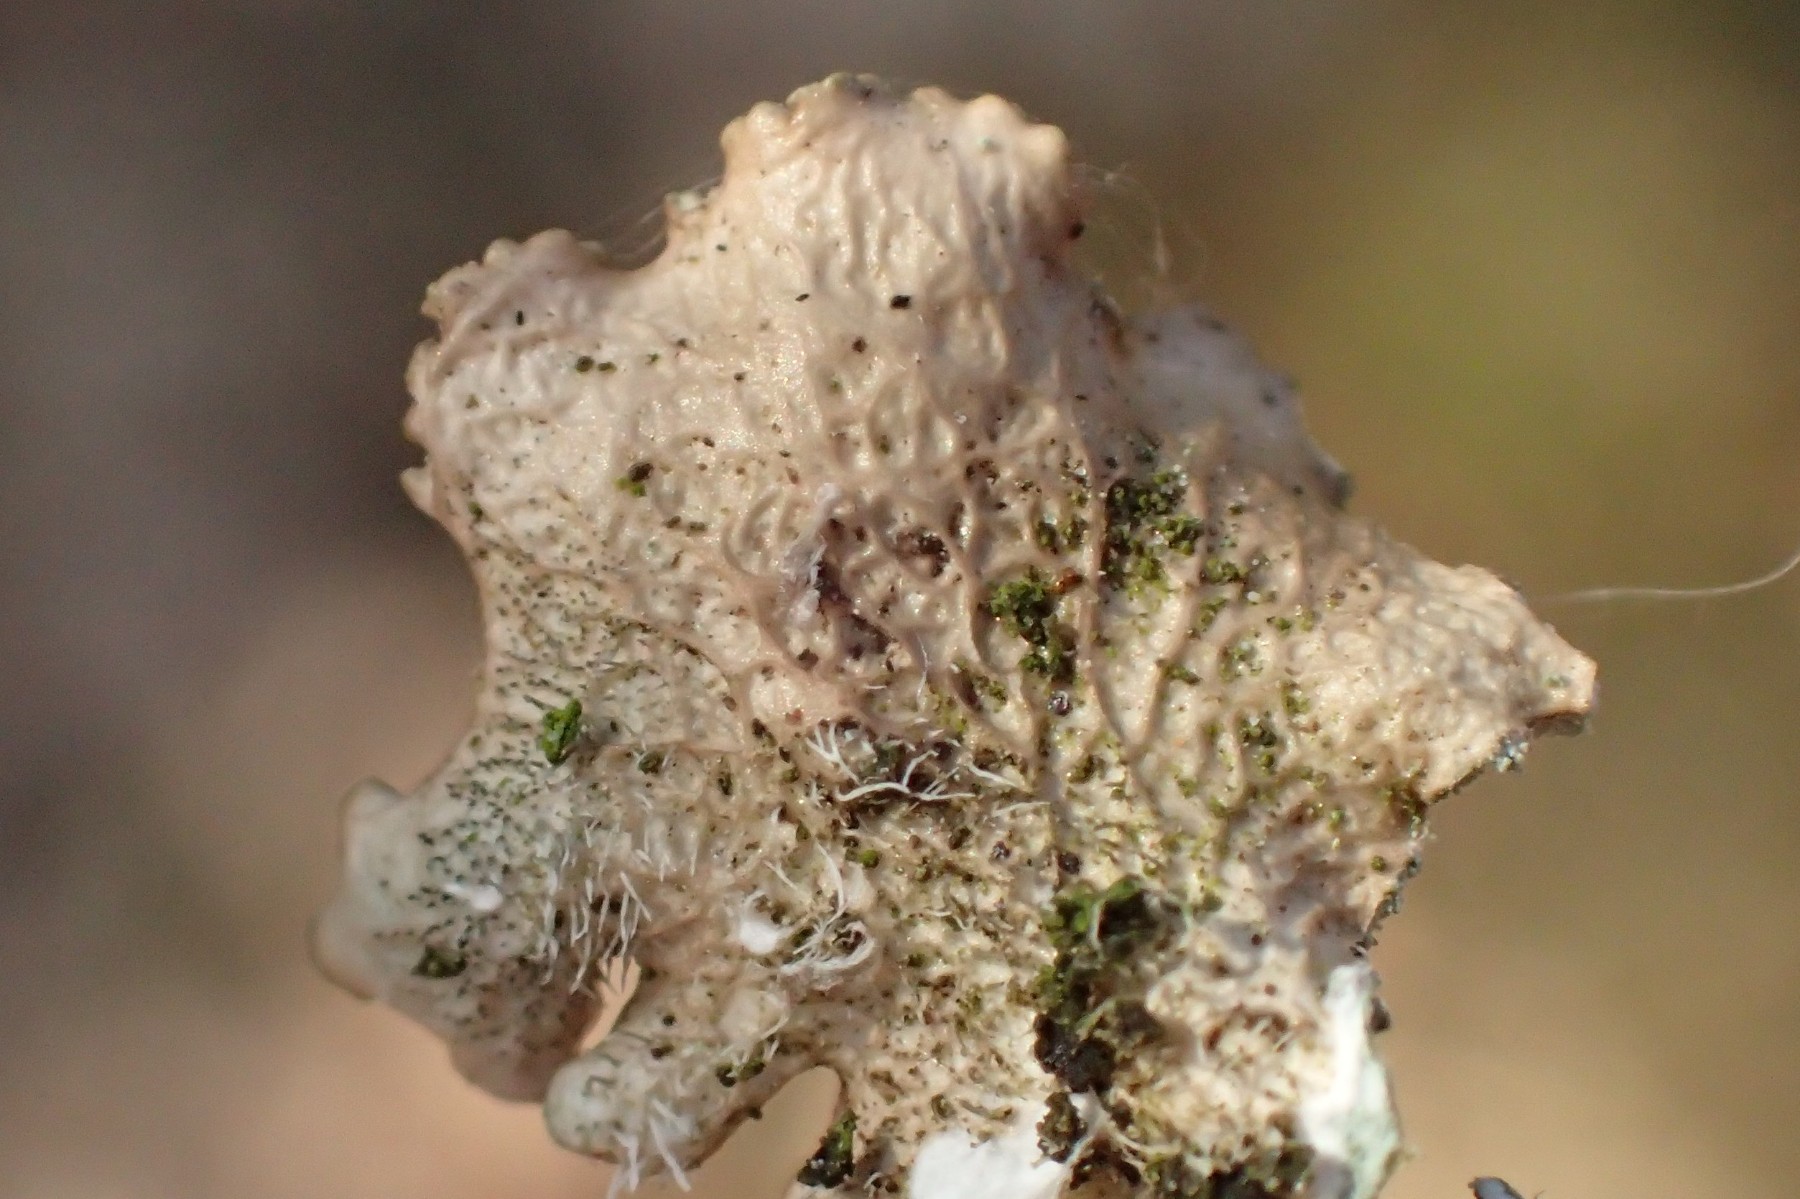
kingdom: Fungi
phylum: Ascomycota
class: Lecanoromycetes
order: Lecanorales
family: Parmeliaceae
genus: Punctelia
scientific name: Punctelia subrudecta
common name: punkt-skållav
